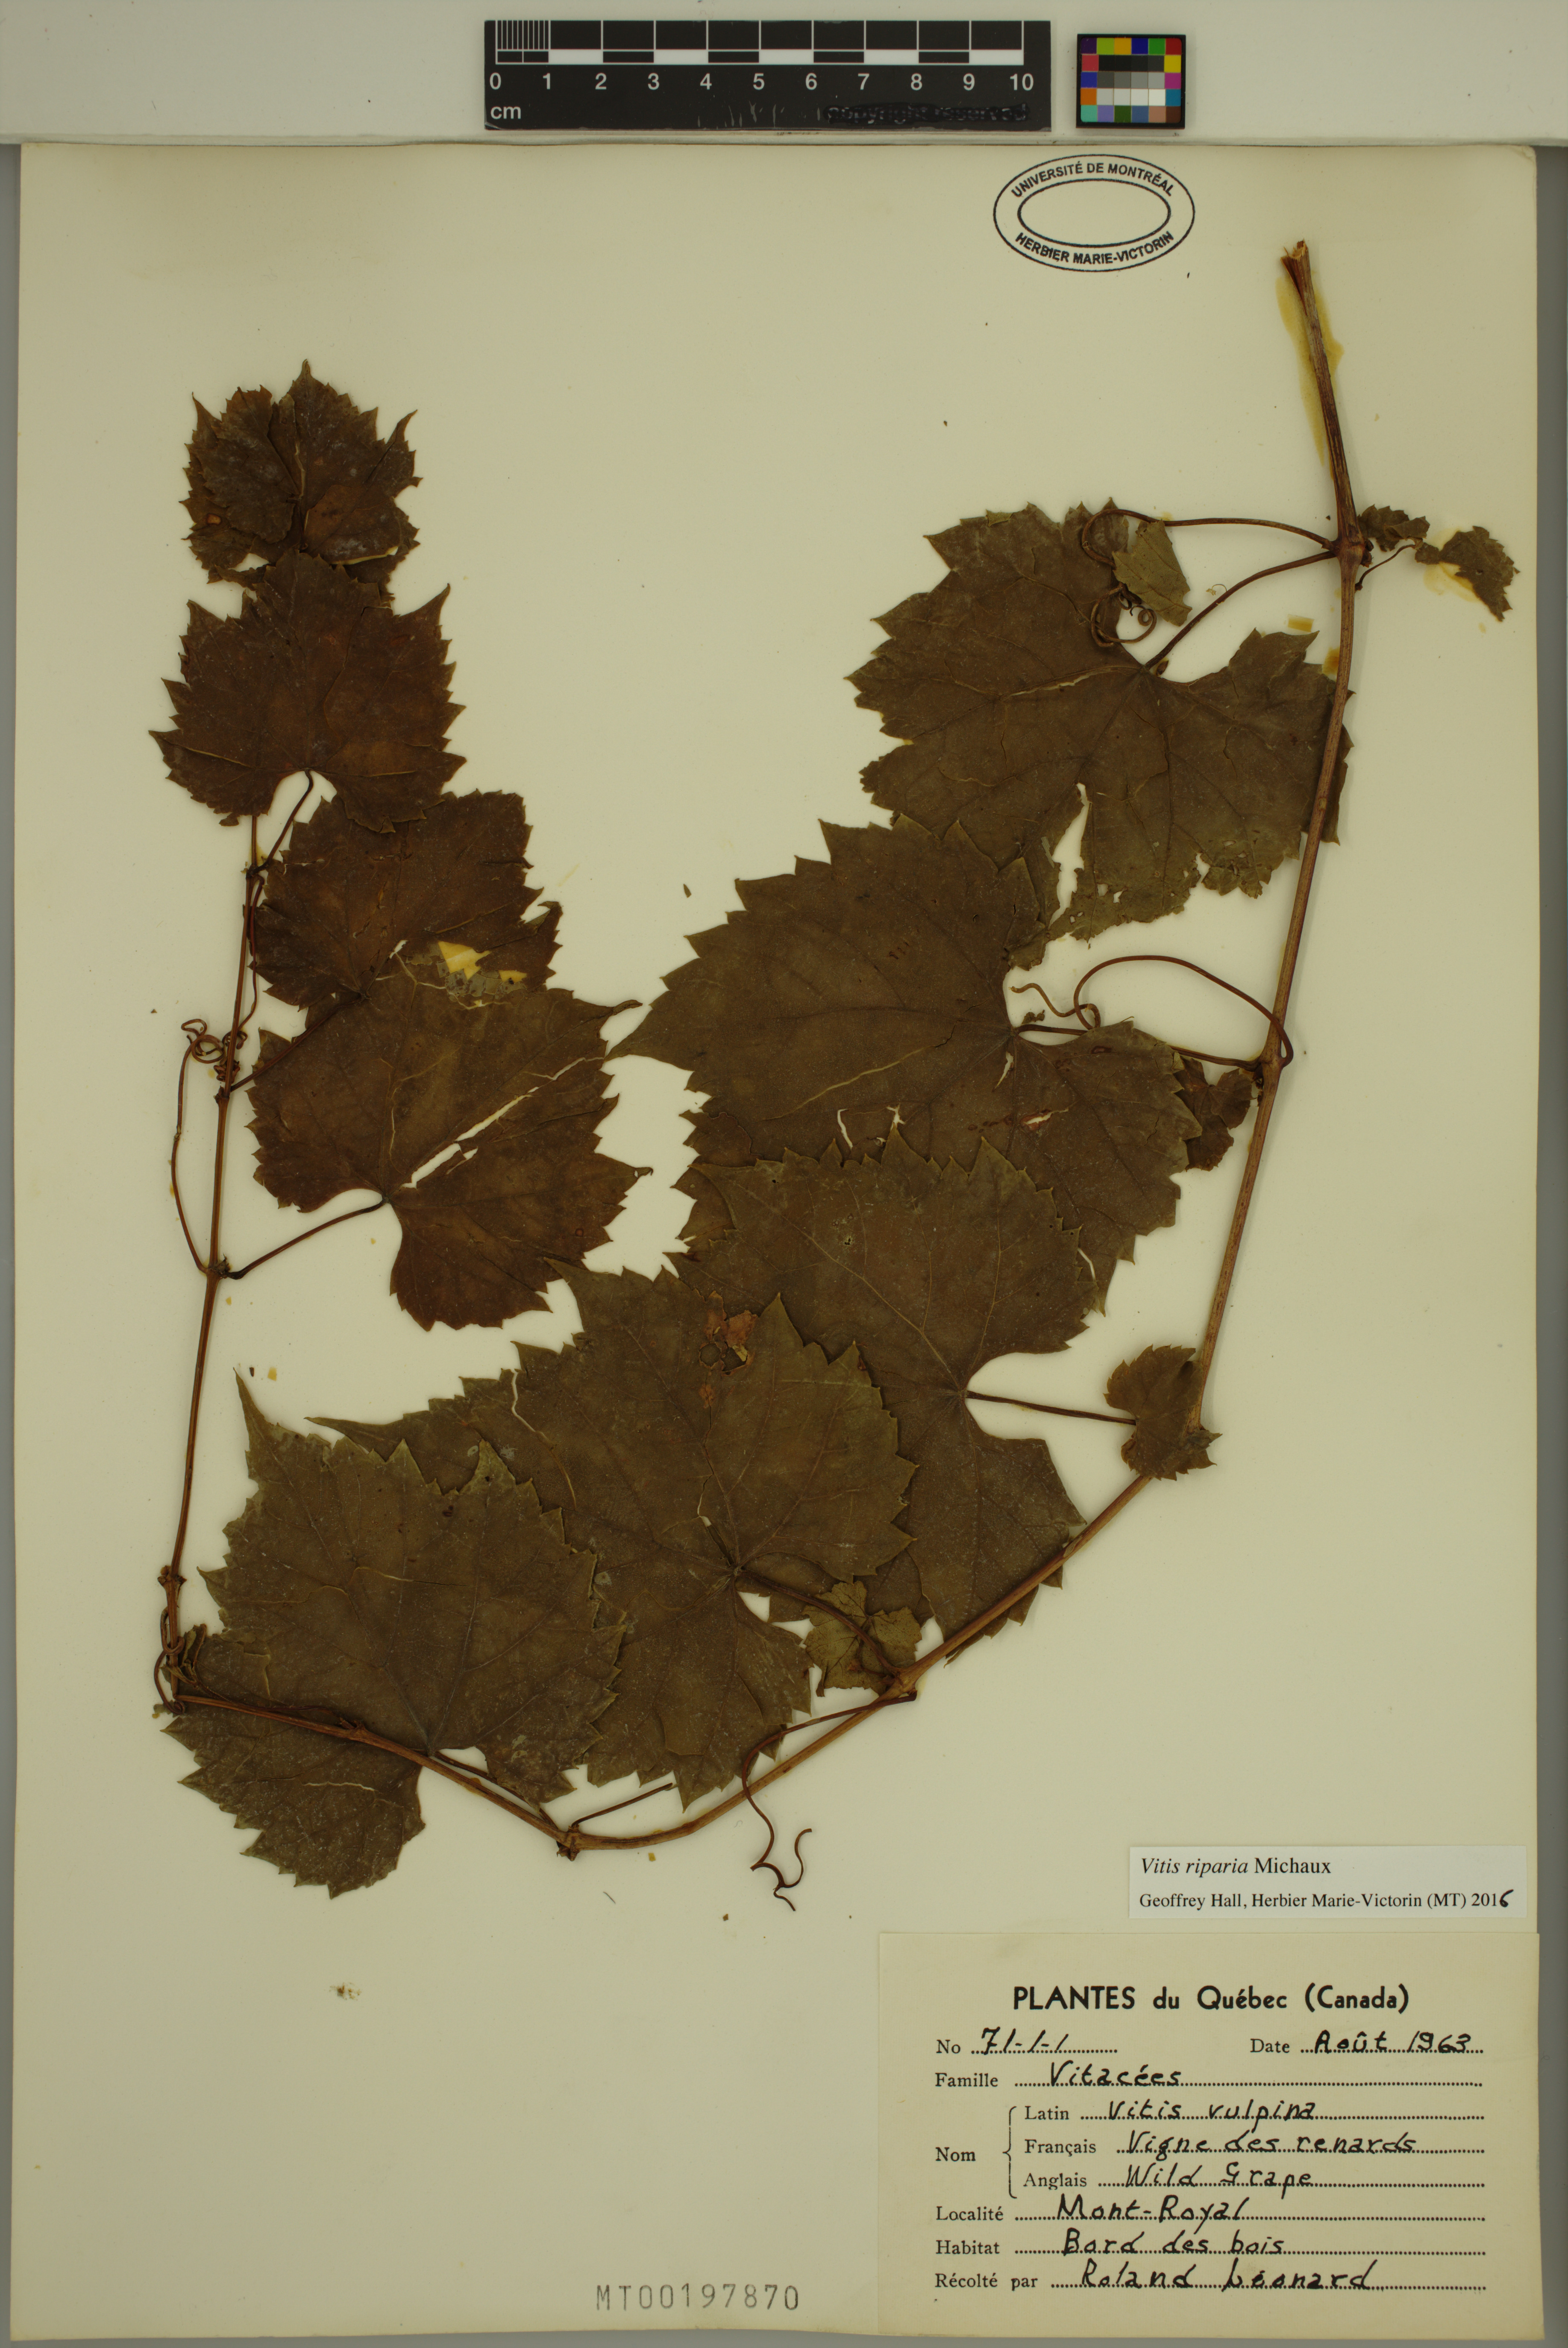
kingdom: Plantae
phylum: Tracheophyta
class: Magnoliopsida
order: Vitales
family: Vitaceae
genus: Vitis
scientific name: Vitis riparia
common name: Frost grape
